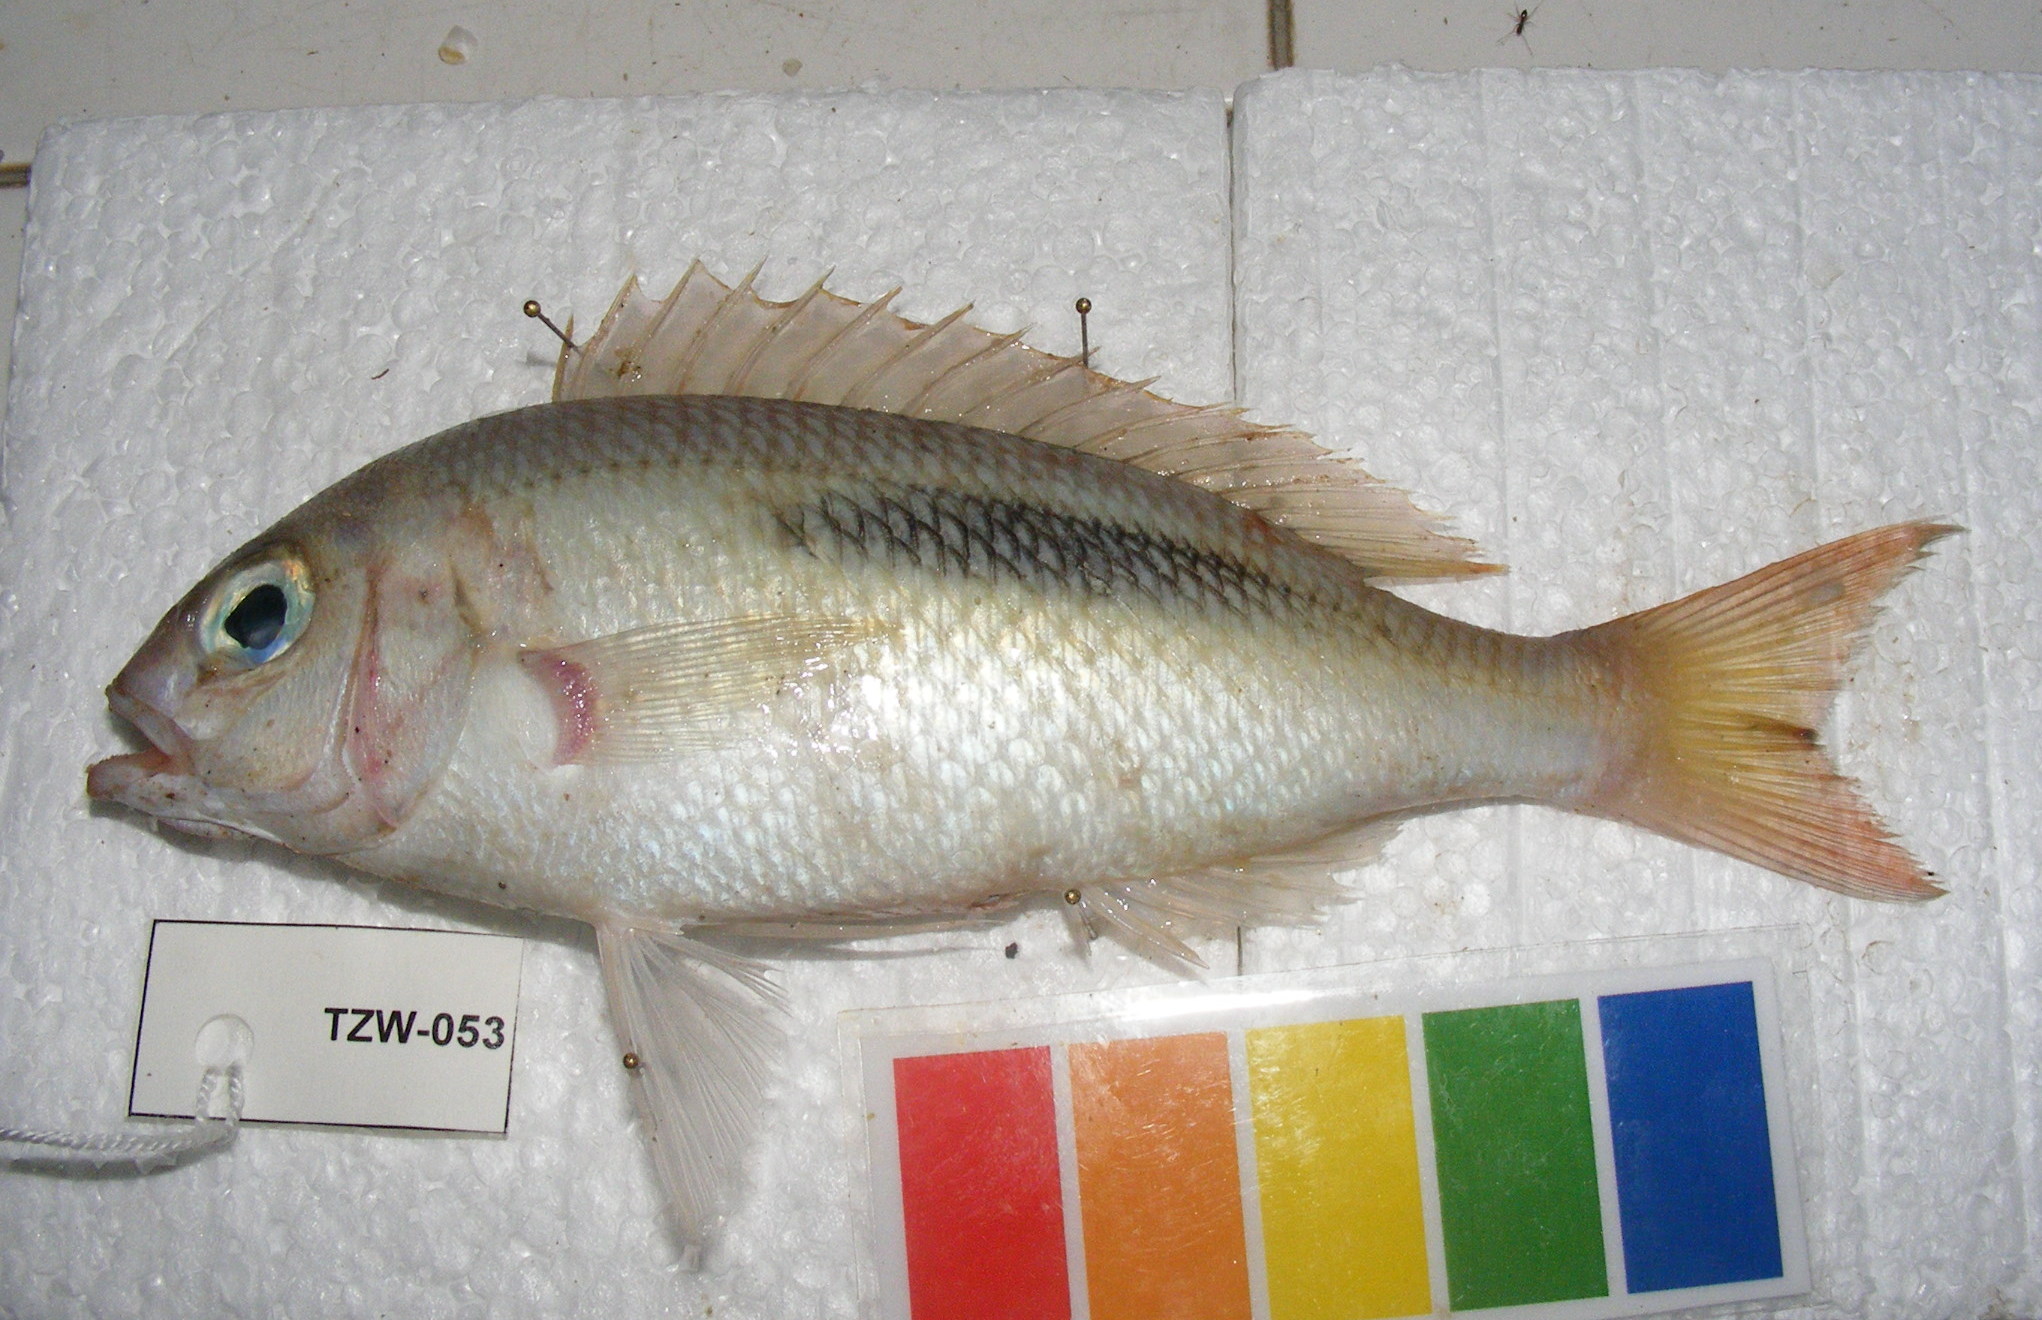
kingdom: Animalia
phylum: Chordata
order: Perciformes
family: Nemipteridae
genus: Scolopsis
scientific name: Scolopsis bimaculata
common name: Thumbprint monocle bream
